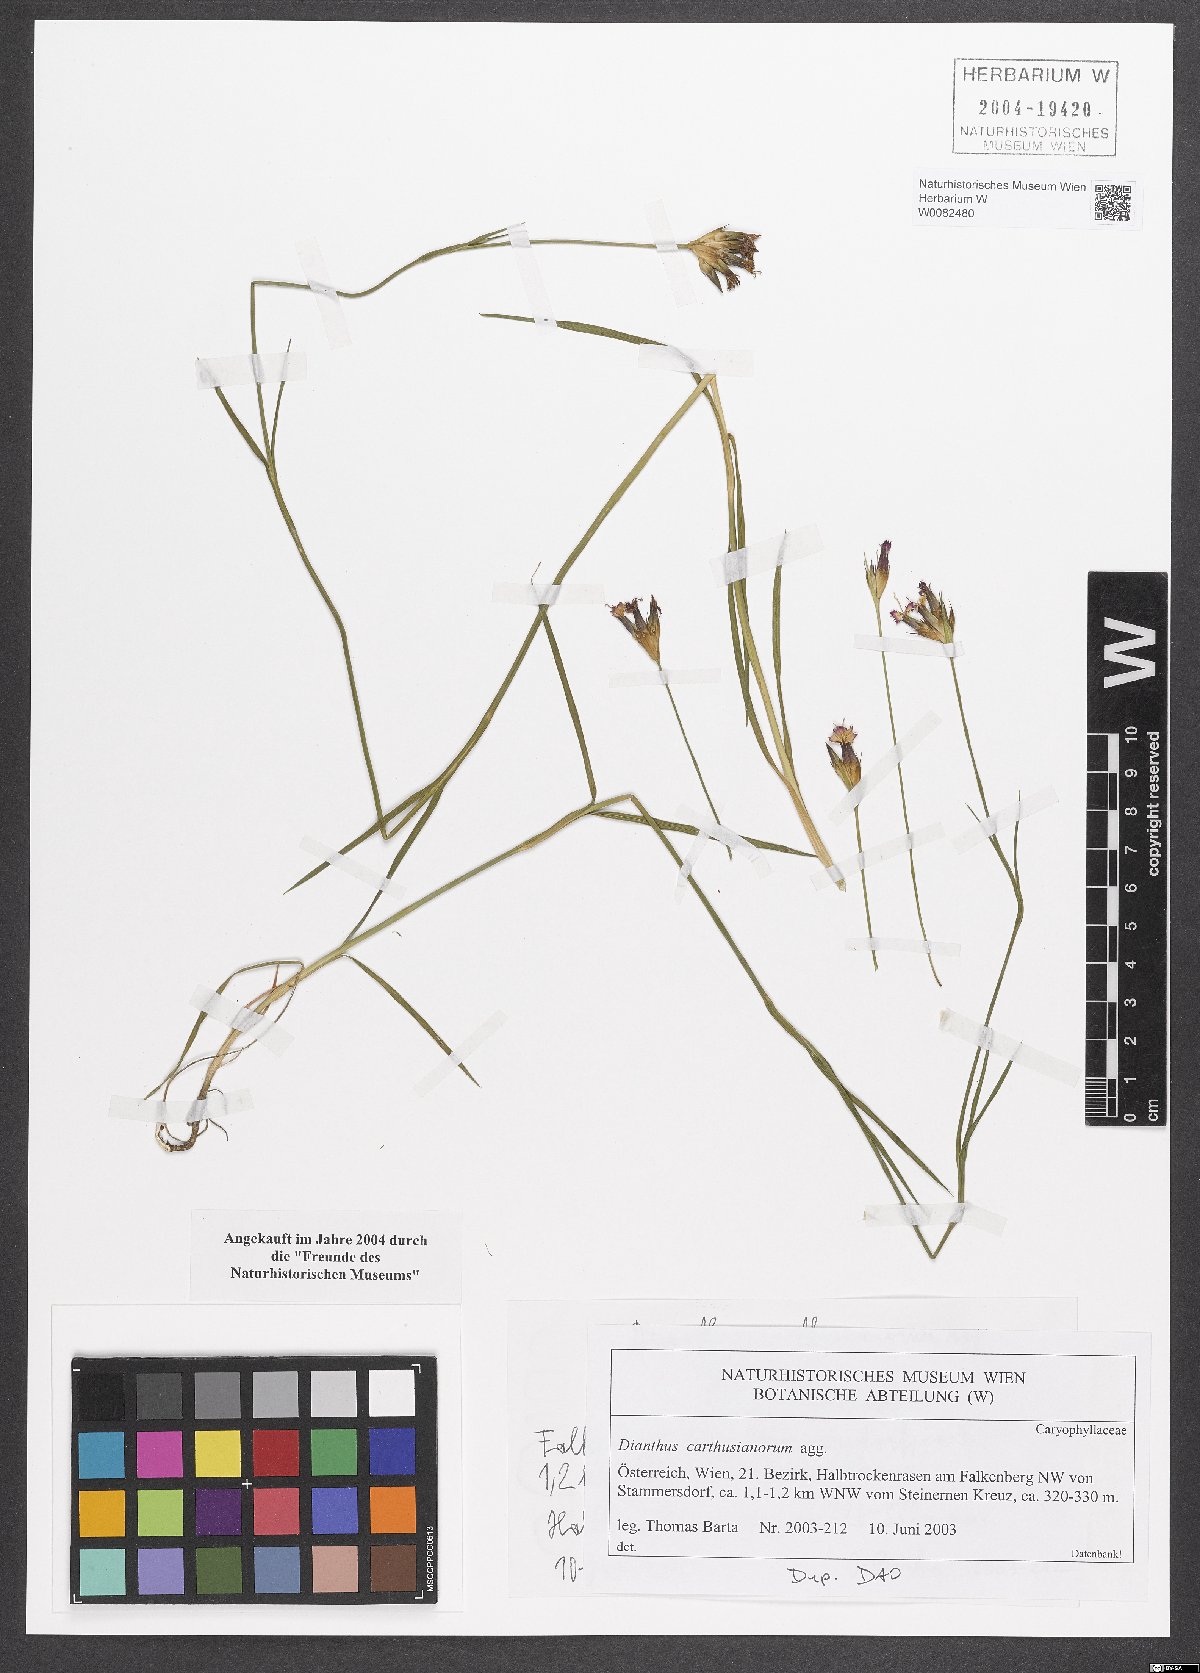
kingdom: Plantae
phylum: Tracheophyta
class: Magnoliopsida
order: Caryophyllales
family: Caryophyllaceae
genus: Dianthus
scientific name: Dianthus carthusianorum
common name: Carthusian pink
